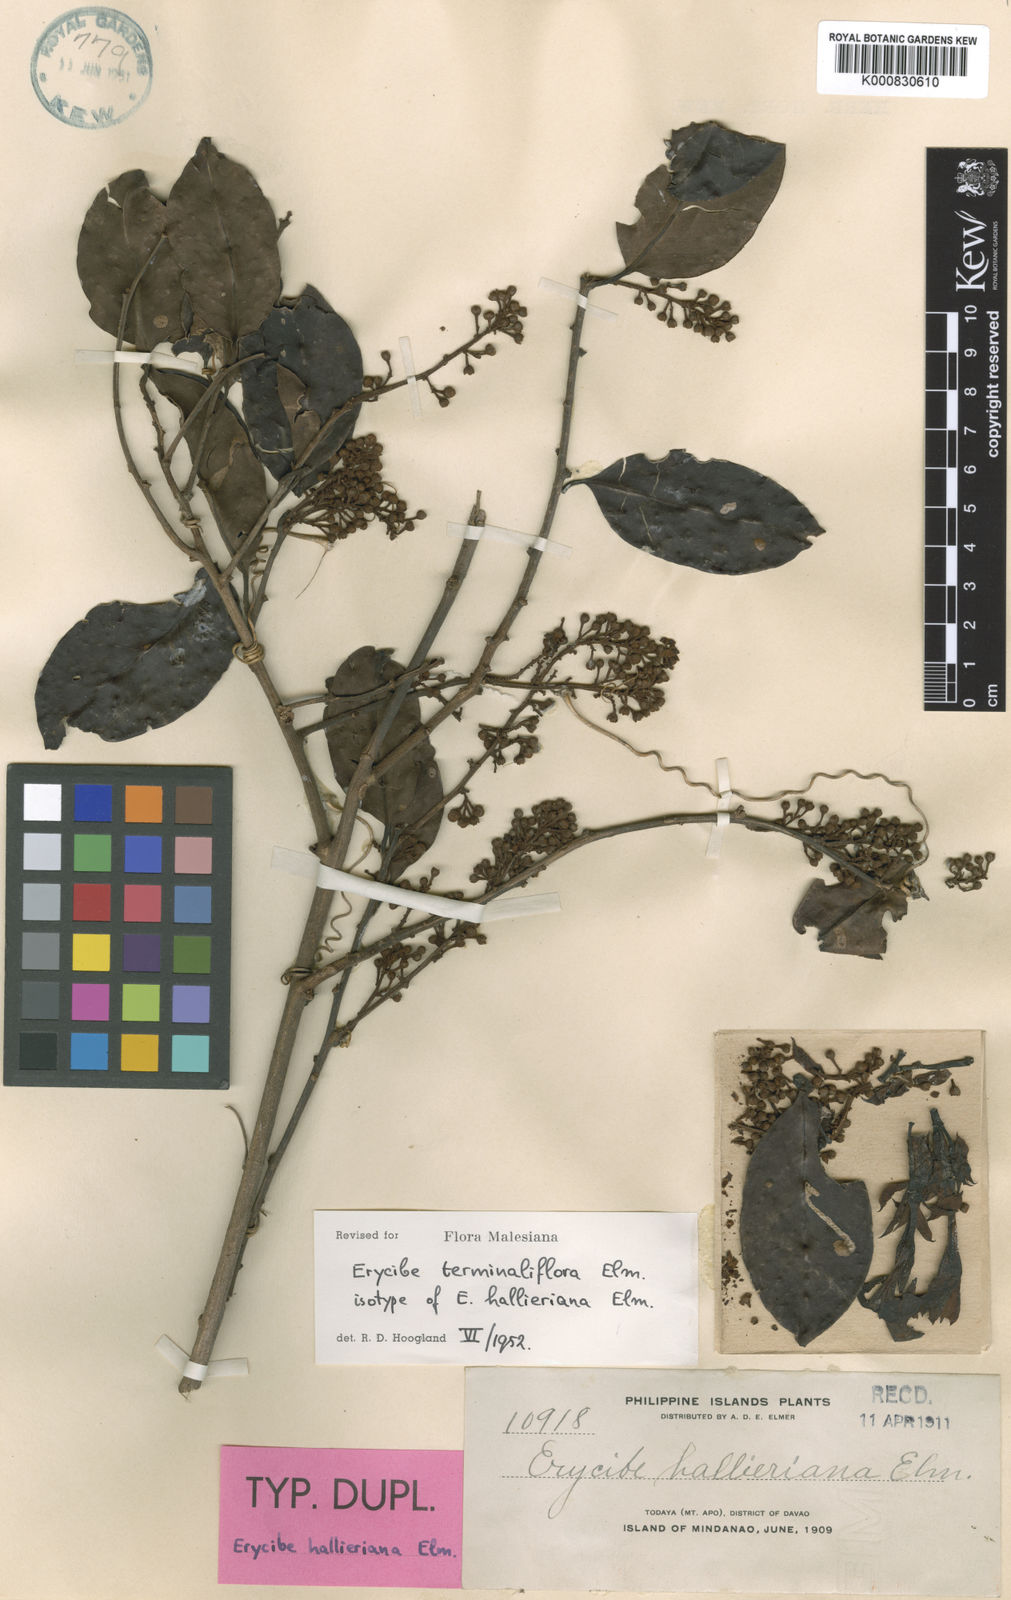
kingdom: Plantae
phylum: Tracheophyta
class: Magnoliopsida
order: Solanales
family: Convolvulaceae
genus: Erycibe
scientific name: Erycibe terminaliflora
